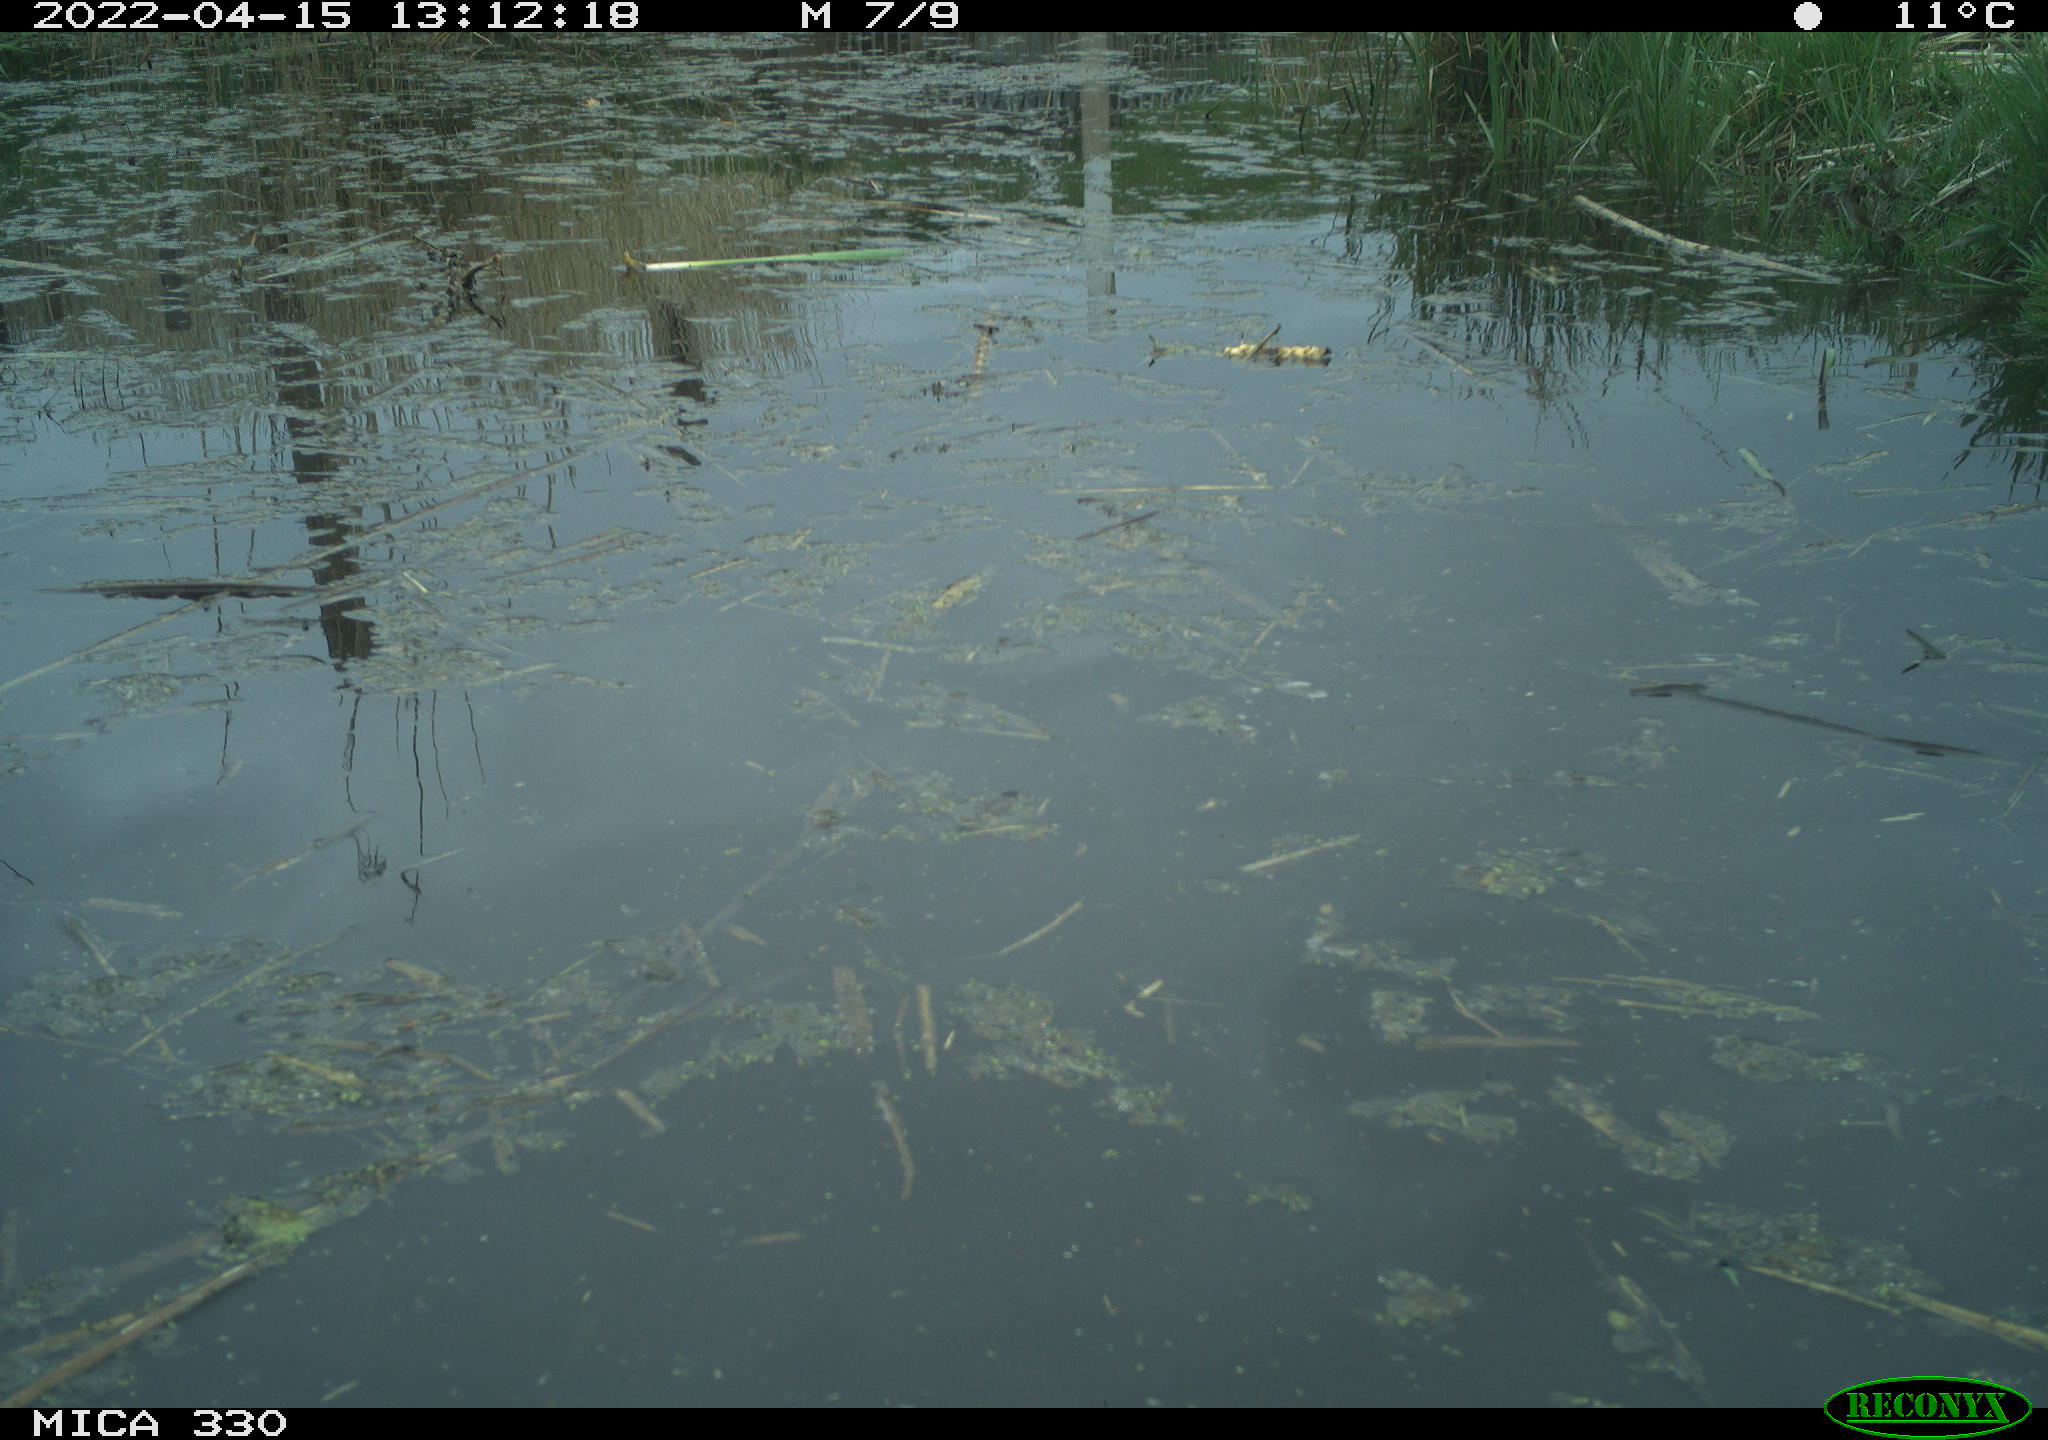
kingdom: Animalia
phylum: Chordata
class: Aves
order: Anseriformes
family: Anatidae
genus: Anas
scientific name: Anas platyrhynchos
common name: Mallard
